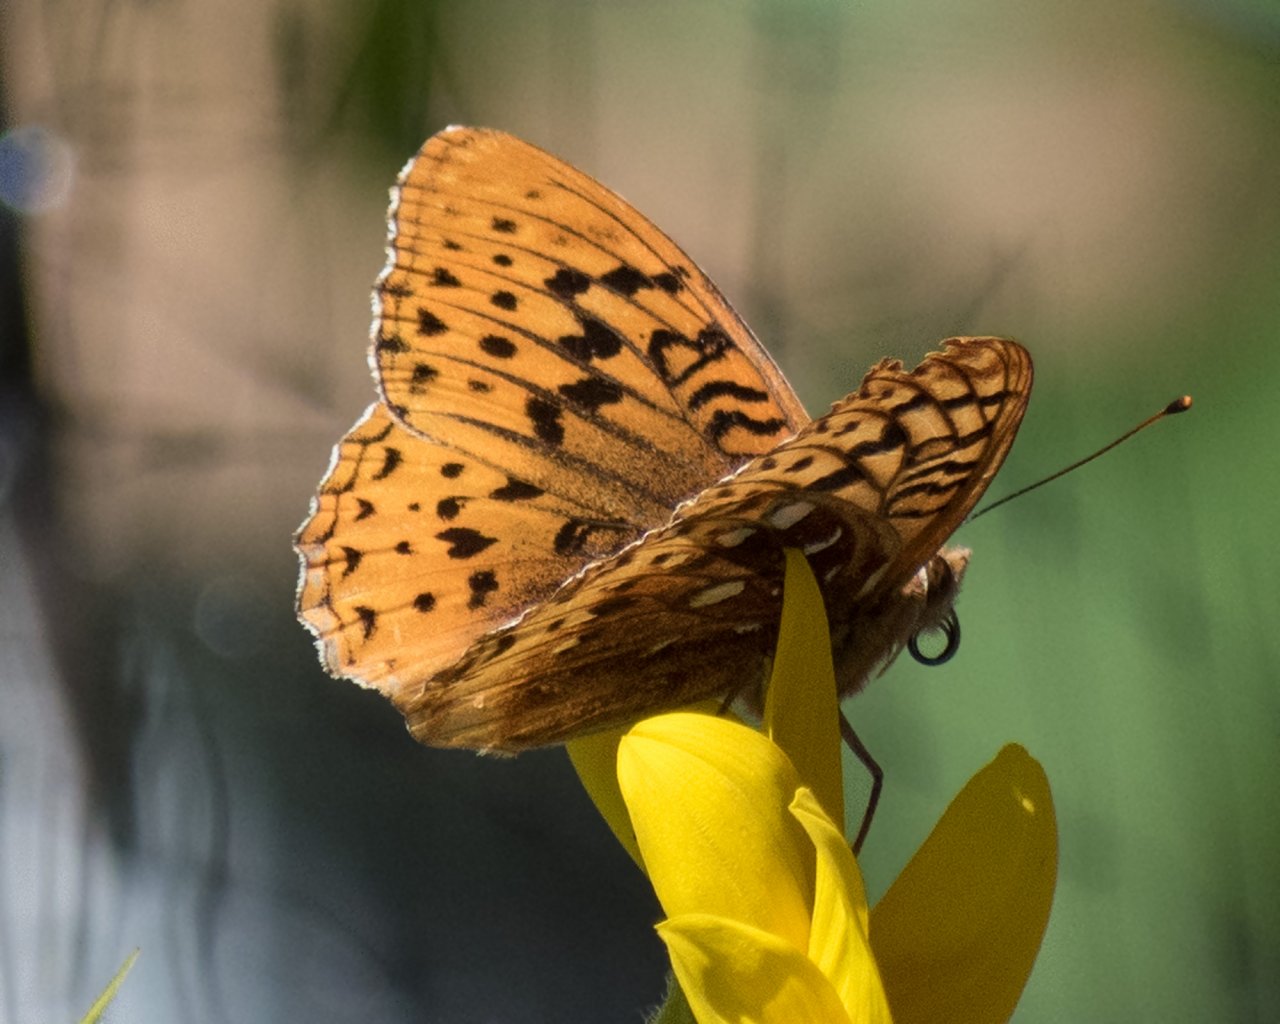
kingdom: Animalia
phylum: Arthropoda
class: Insecta
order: Lepidoptera
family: Nymphalidae
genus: Speyeria
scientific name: Speyeria cybele
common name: Great Spangled Fritillary
